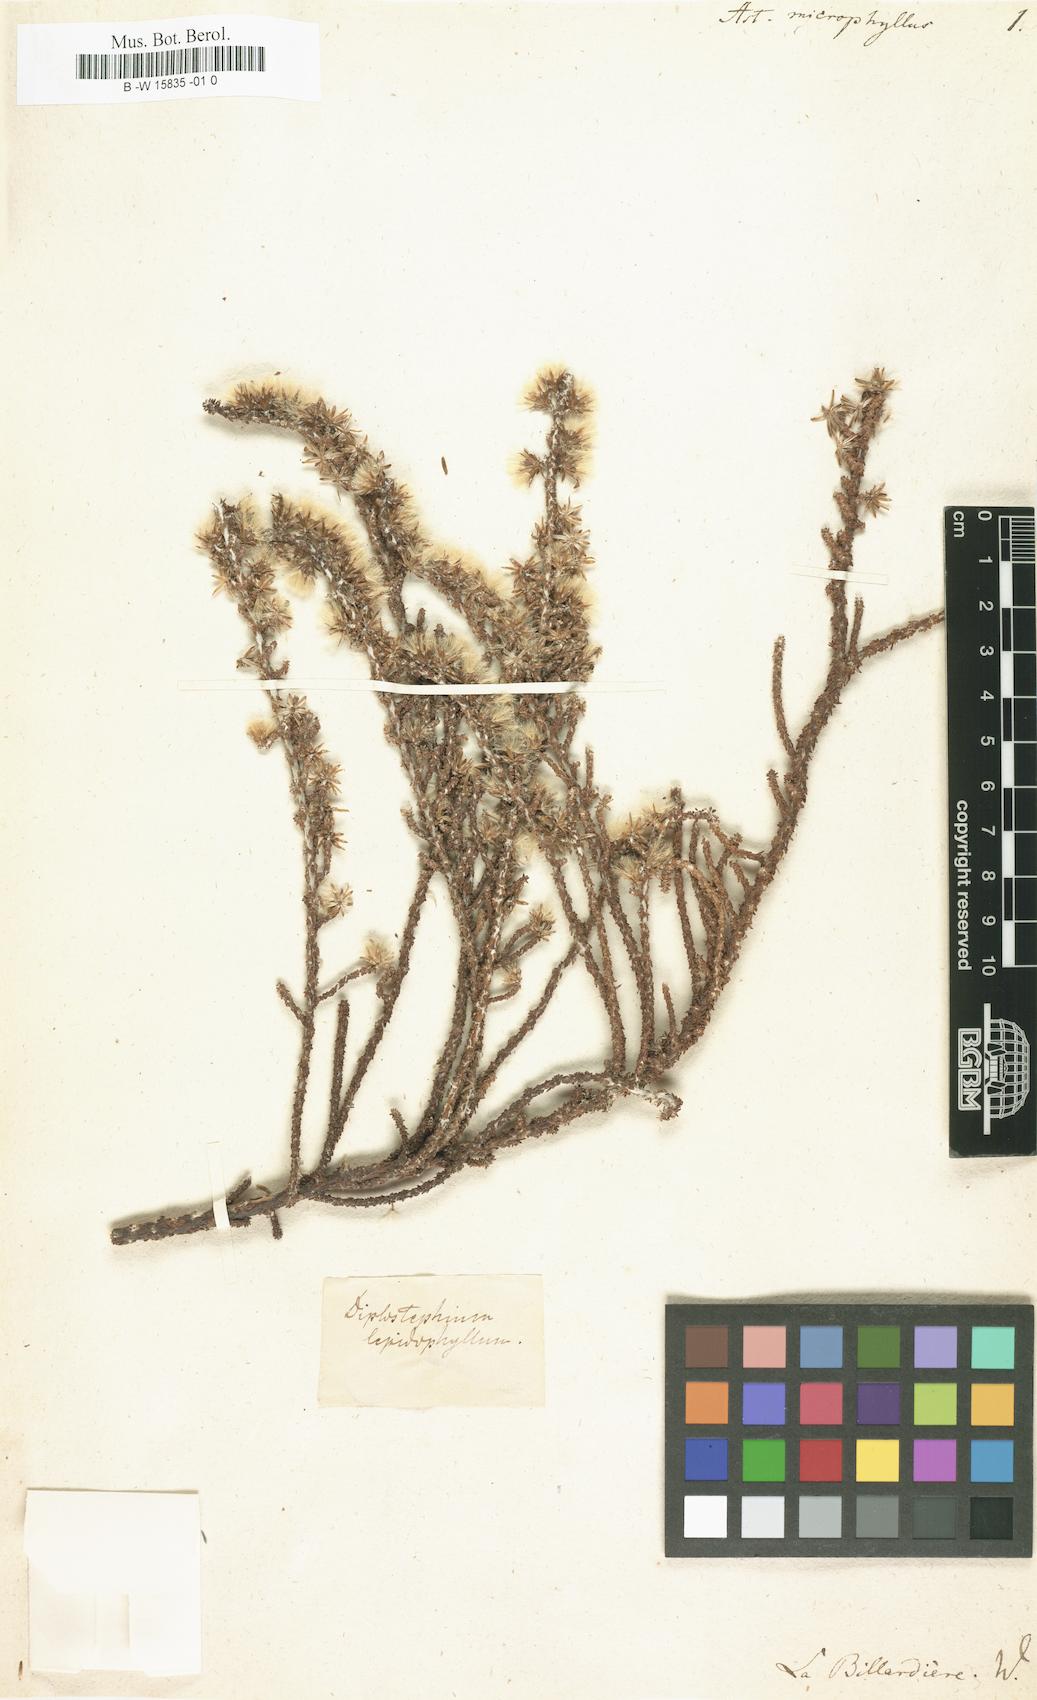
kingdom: Plantae
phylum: Tracheophyta
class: Magnoliopsida
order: Asterales
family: Asteraceae
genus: Olearia
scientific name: Olearia lepidophylla
